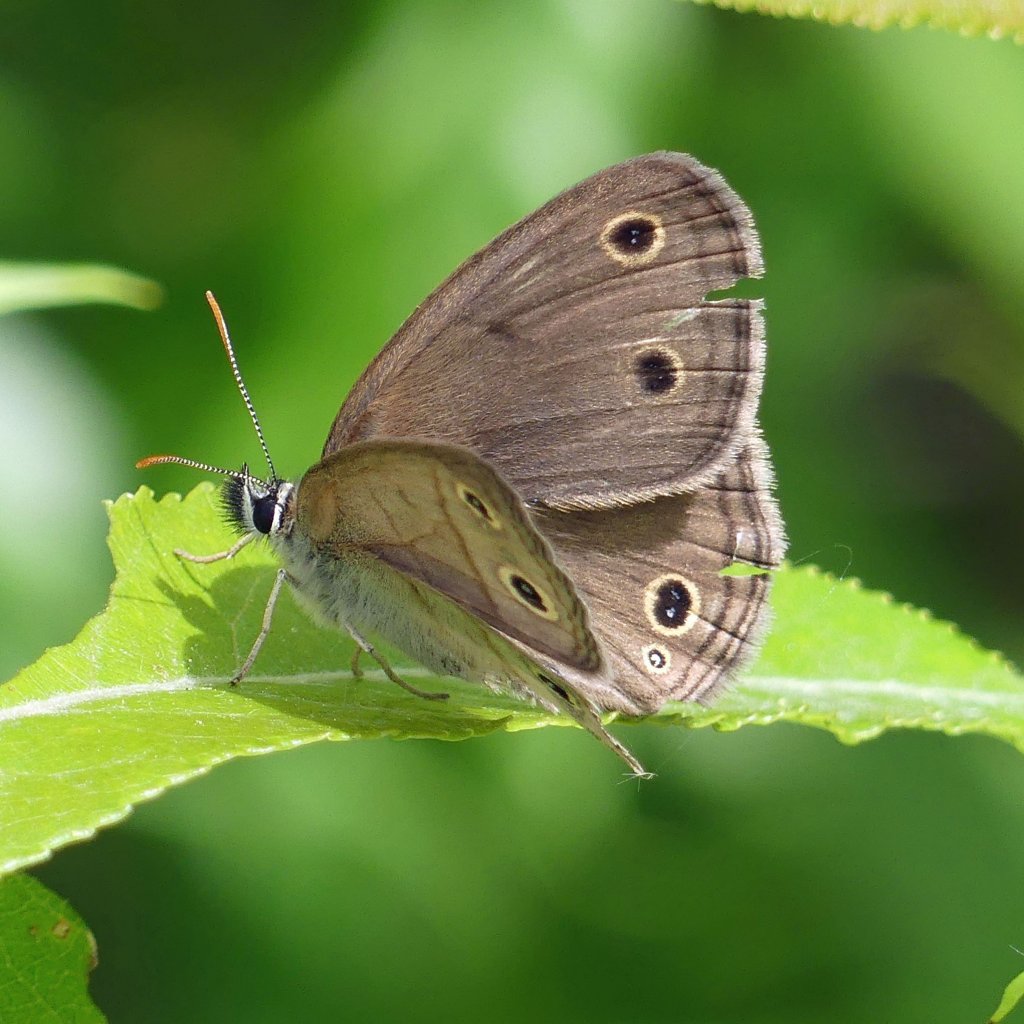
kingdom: Animalia
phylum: Arthropoda
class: Insecta
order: Lepidoptera
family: Nymphalidae
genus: Euptychia
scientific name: Euptychia cymela
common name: Little Wood Satyr
